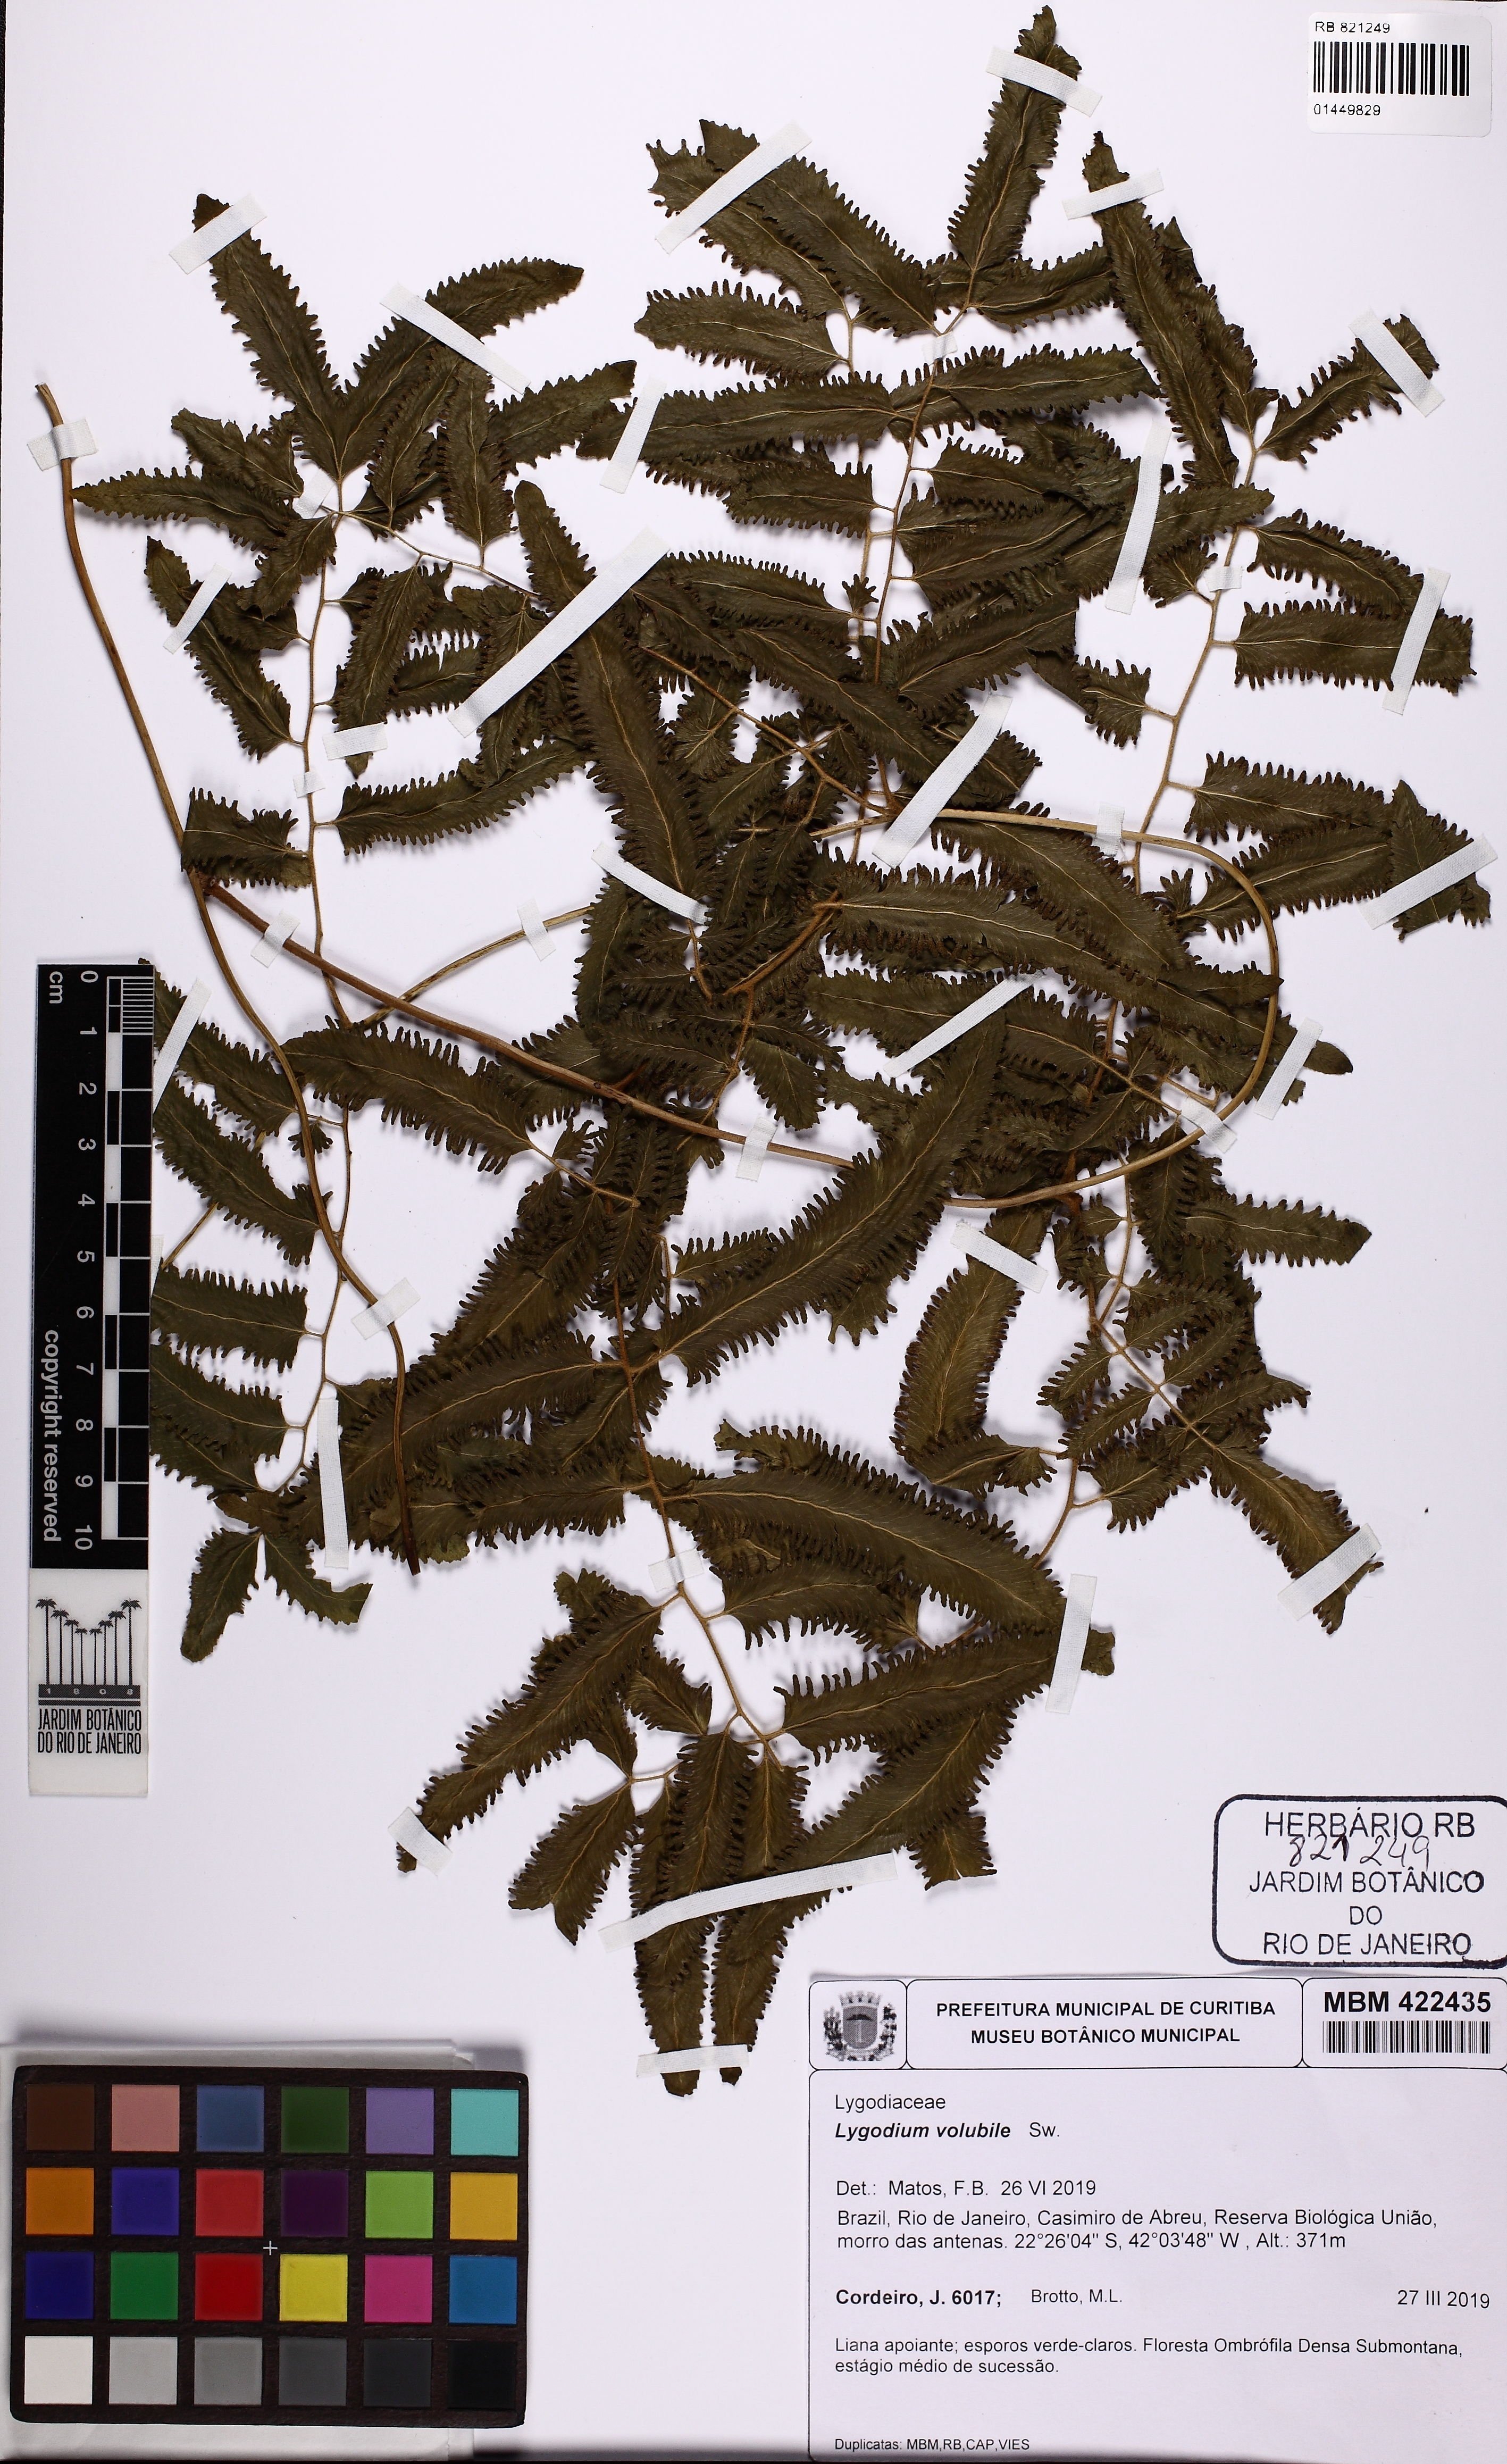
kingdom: Plantae
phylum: Tracheophyta
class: Polypodiopsida
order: Schizaeales
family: Lygodiaceae
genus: Lygodium
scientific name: Lygodium volubile
